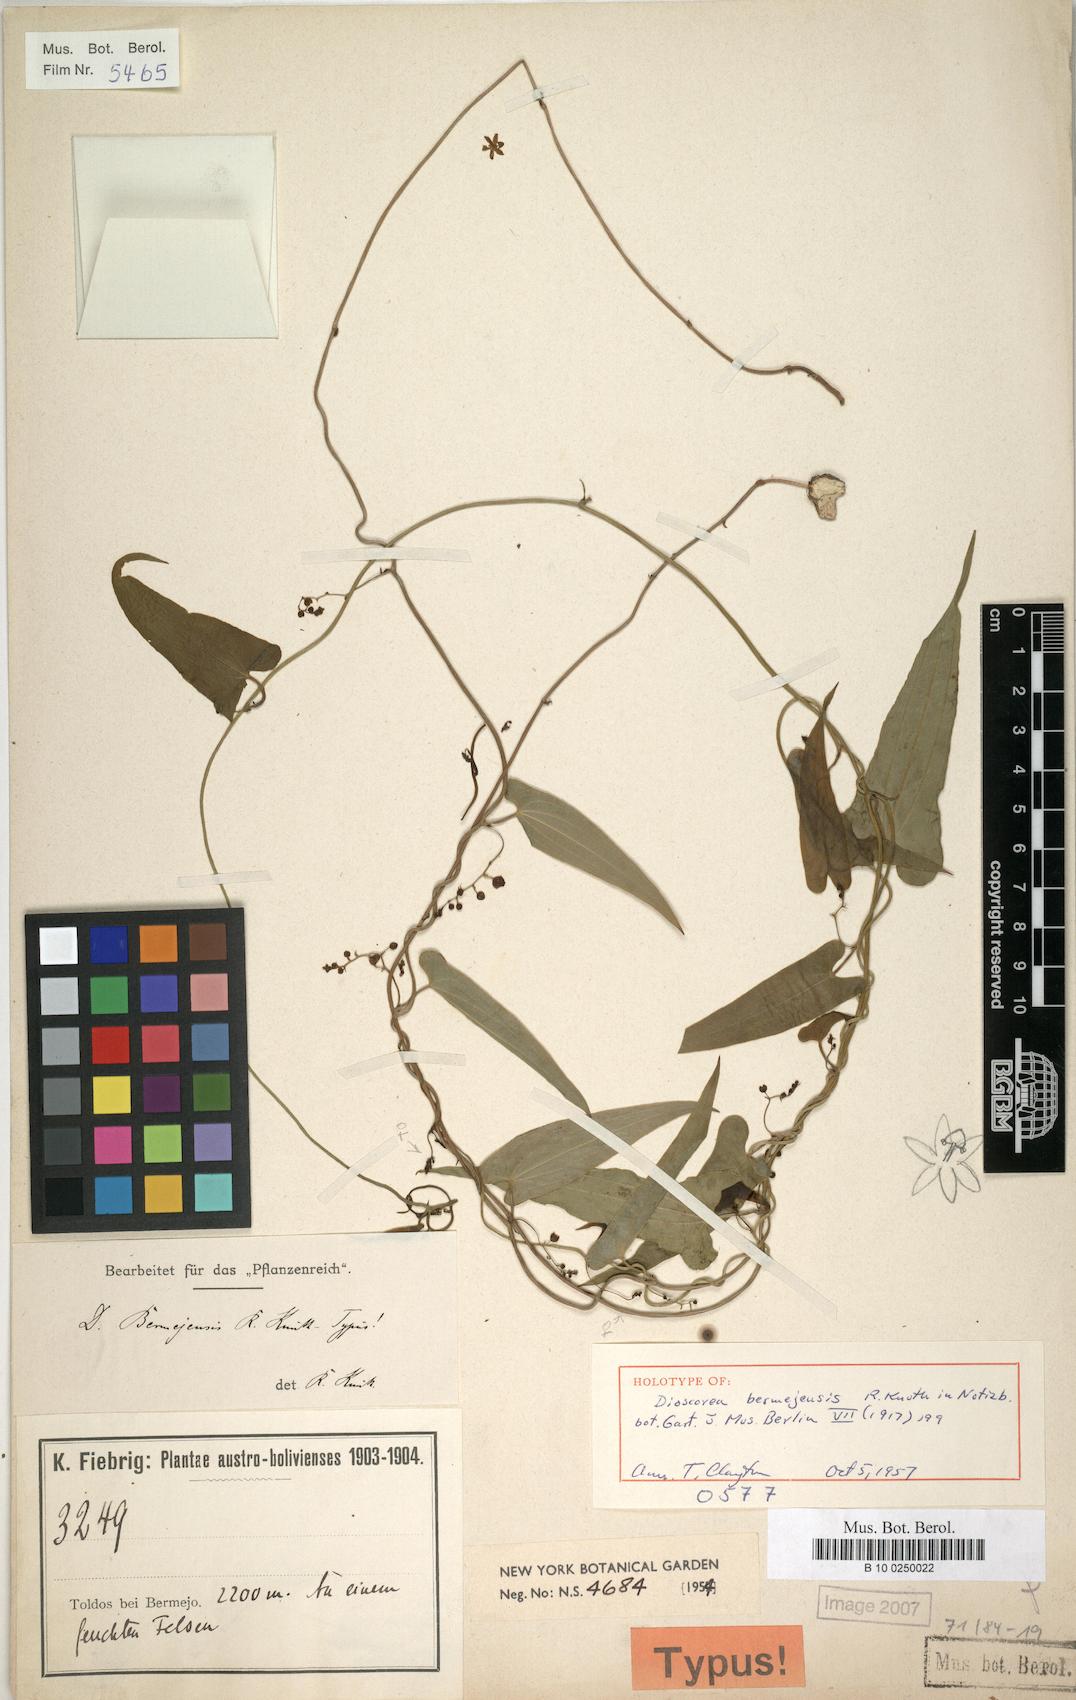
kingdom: Plantae
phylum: Tracheophyta
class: Liliopsida
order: Dioscoreales
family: Dioscoreaceae
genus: Dioscorea
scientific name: Dioscorea bermejensis
